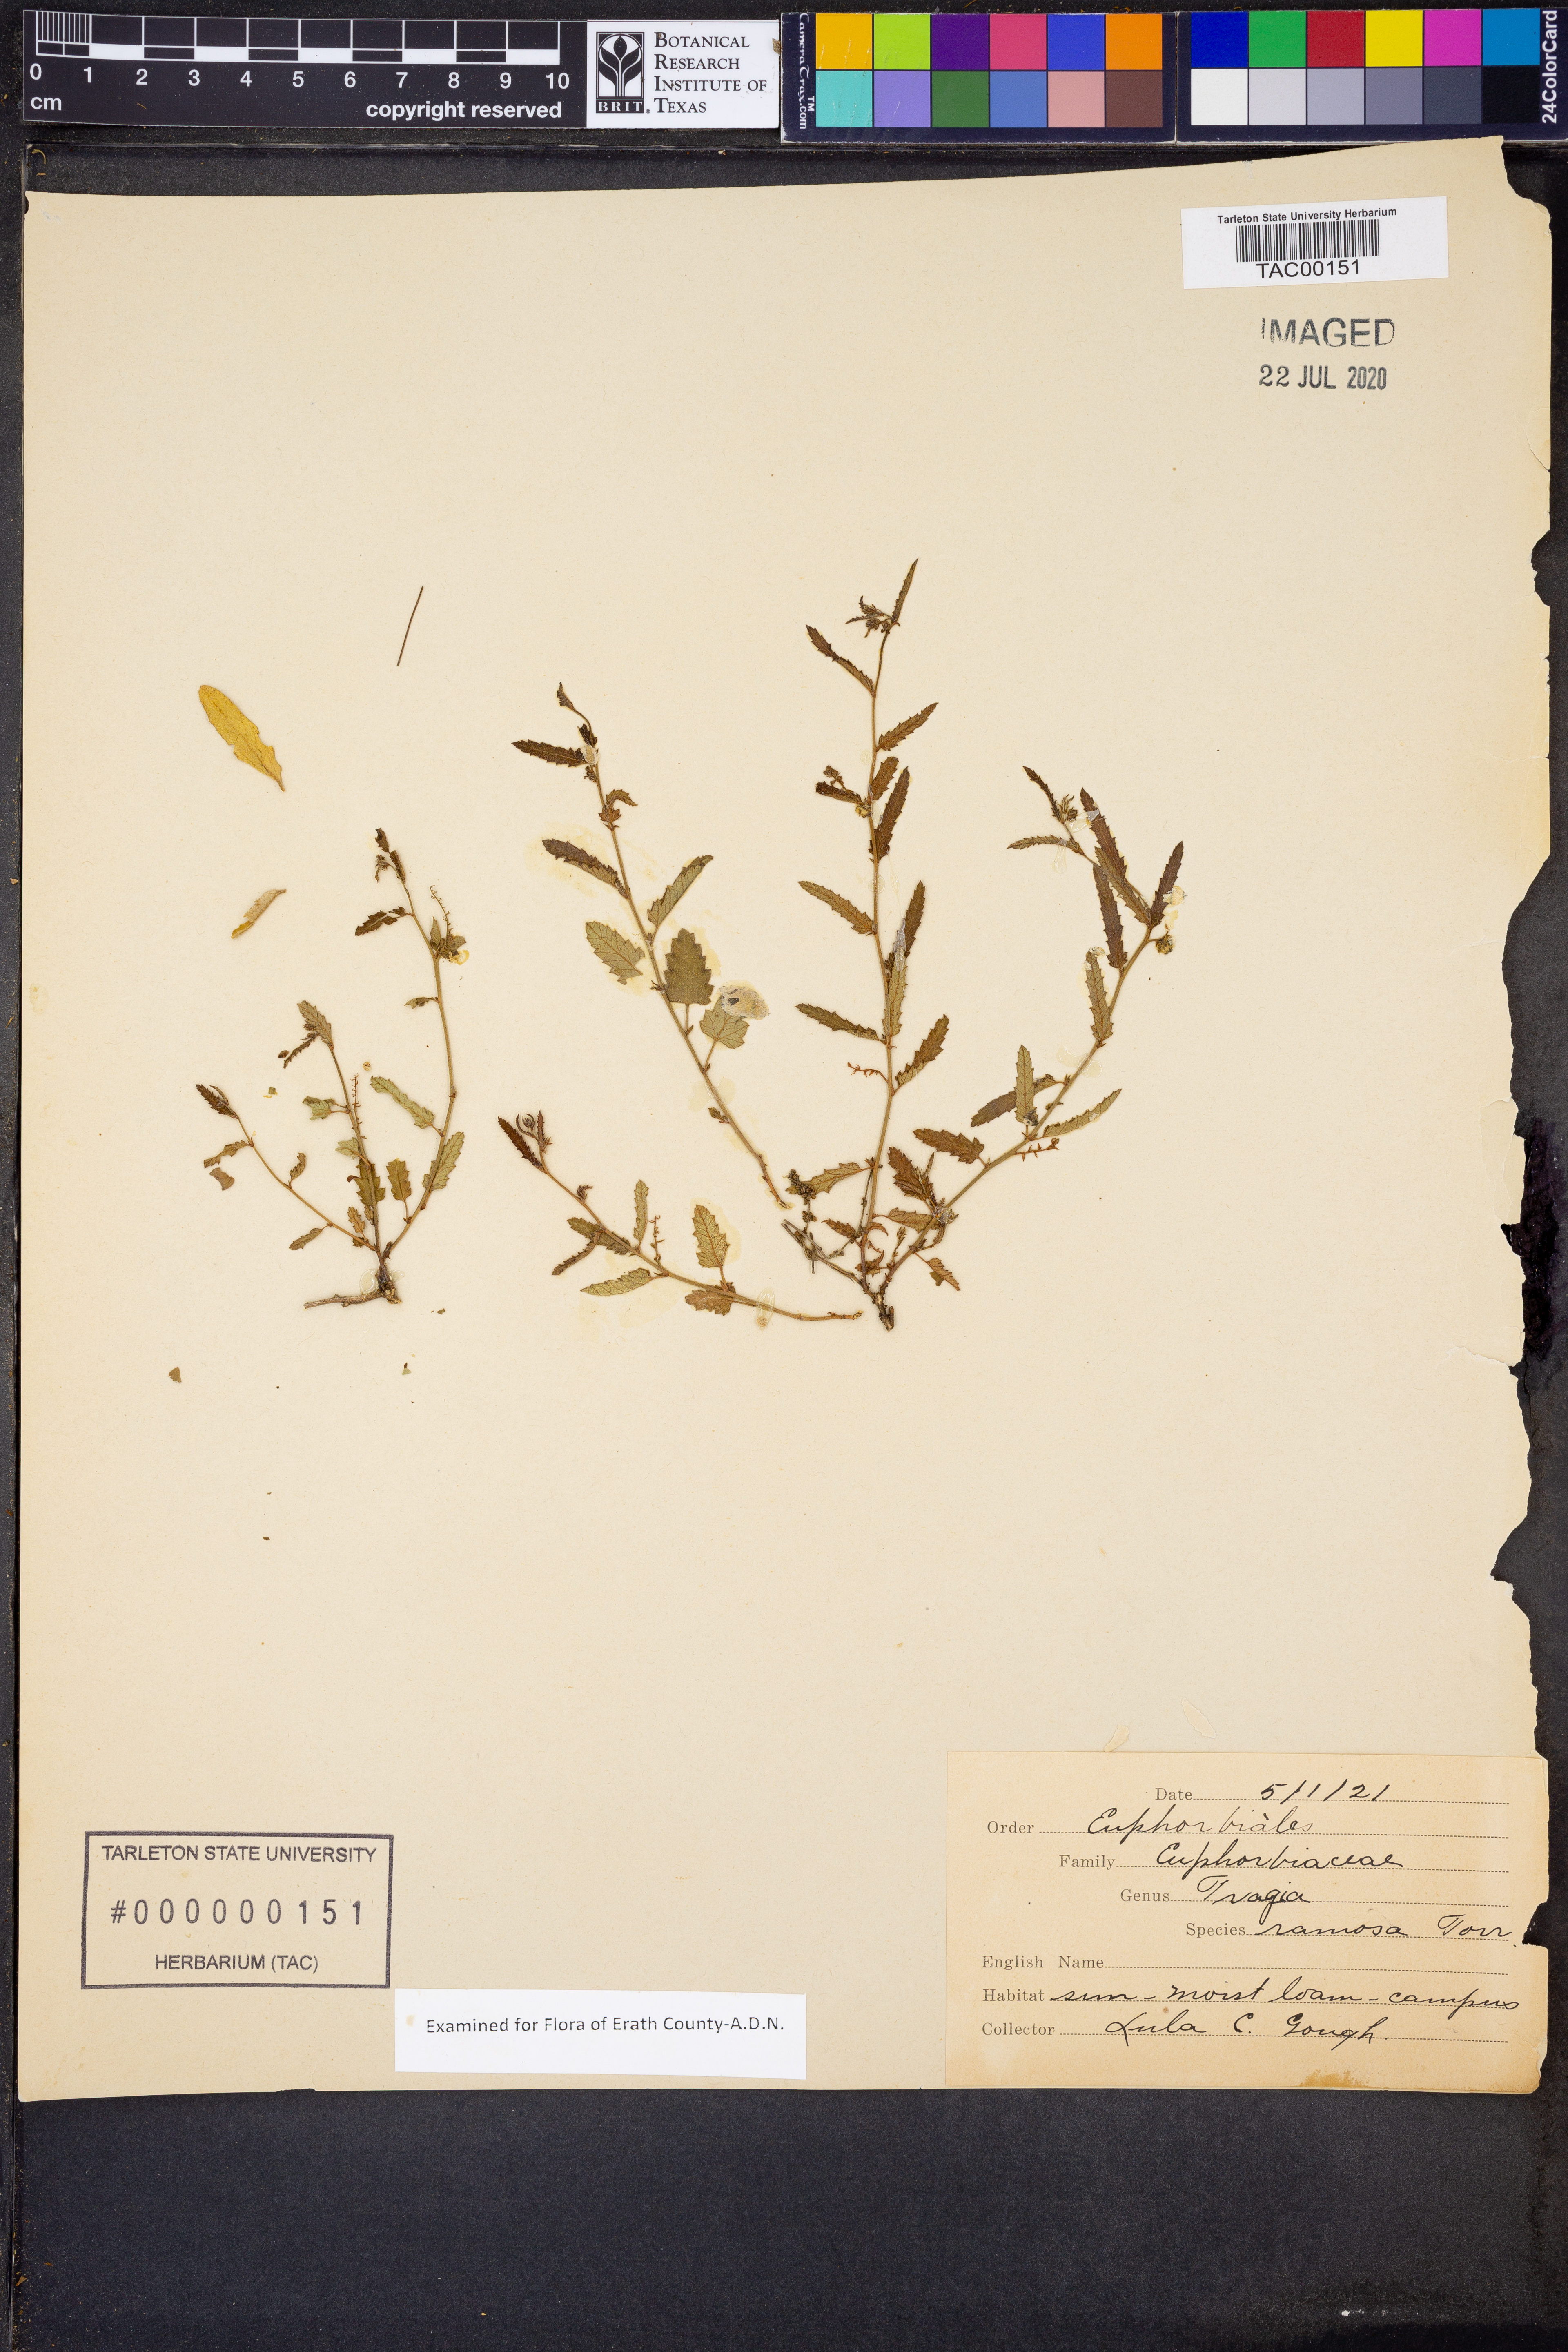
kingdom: Plantae
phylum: Tracheophyta
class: Magnoliopsida
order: Malpighiales
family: Euphorbiaceae
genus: Tragia
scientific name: Tragia ramosa
